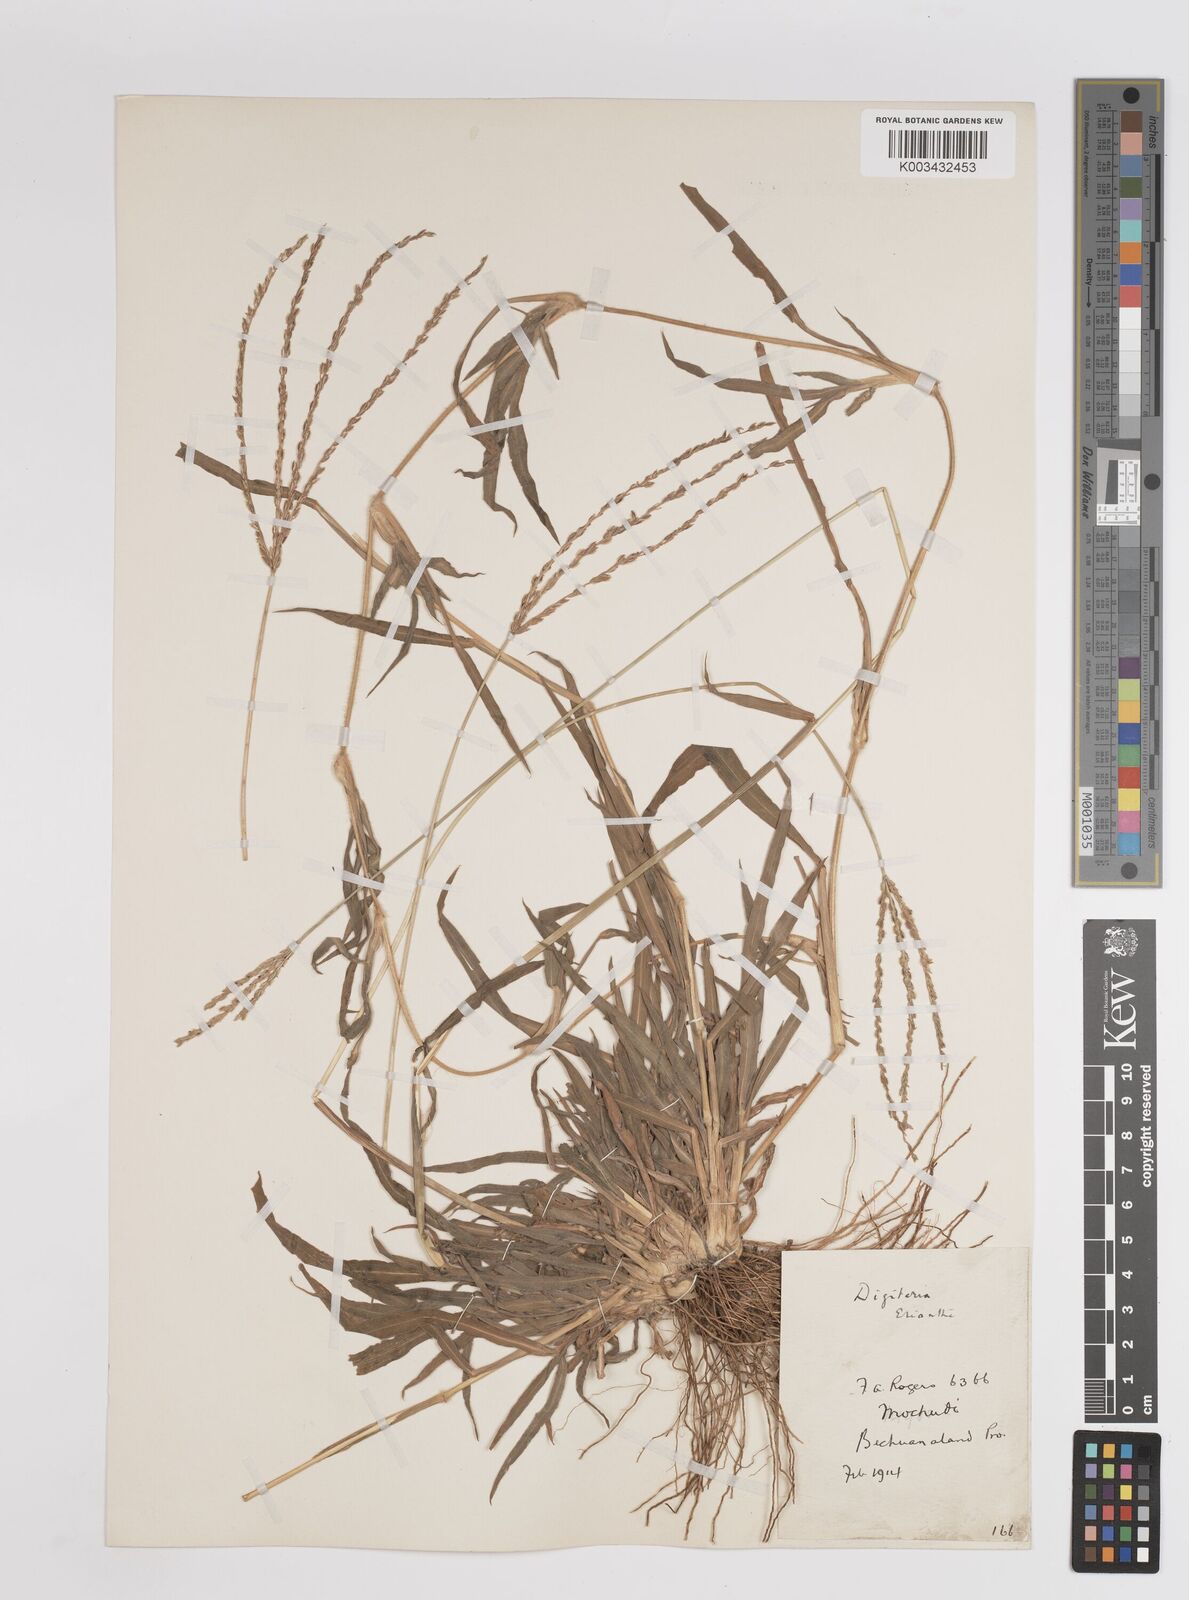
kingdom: Plantae
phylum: Tracheophyta
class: Liliopsida
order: Poales
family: Poaceae
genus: Digitaria
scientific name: Digitaria eriantha
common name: Digitgrass
